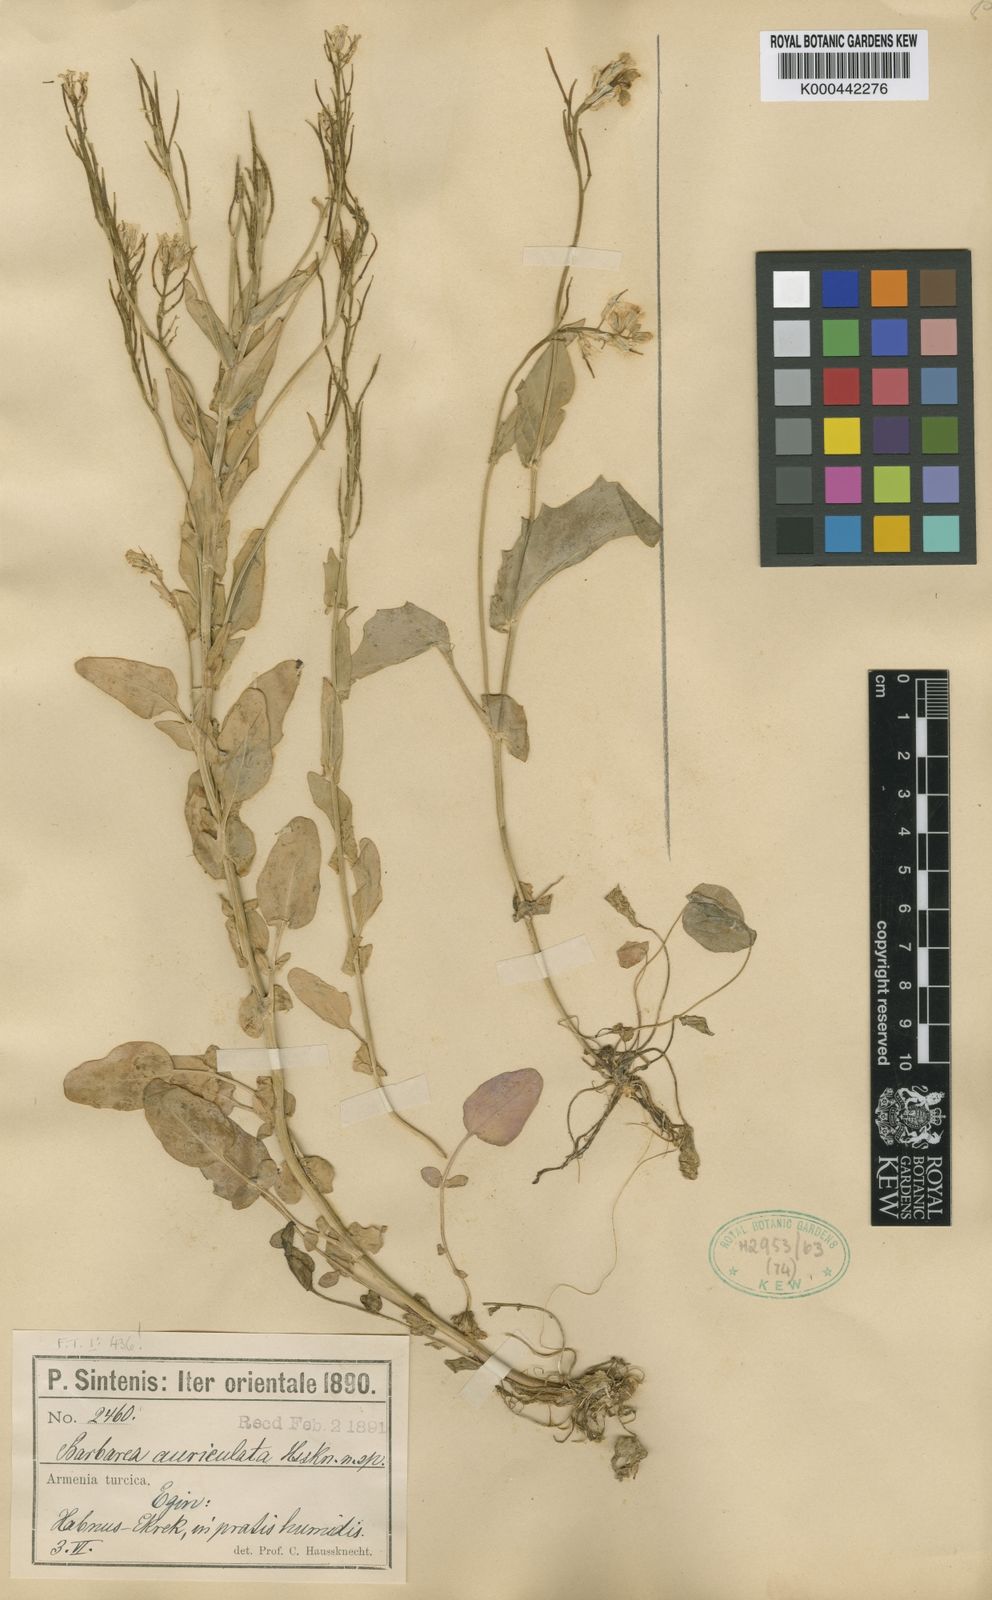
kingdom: Plantae
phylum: Tracheophyta
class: Magnoliopsida
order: Brassicales
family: Brassicaceae
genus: Barbarea
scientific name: Barbarea auriculata
